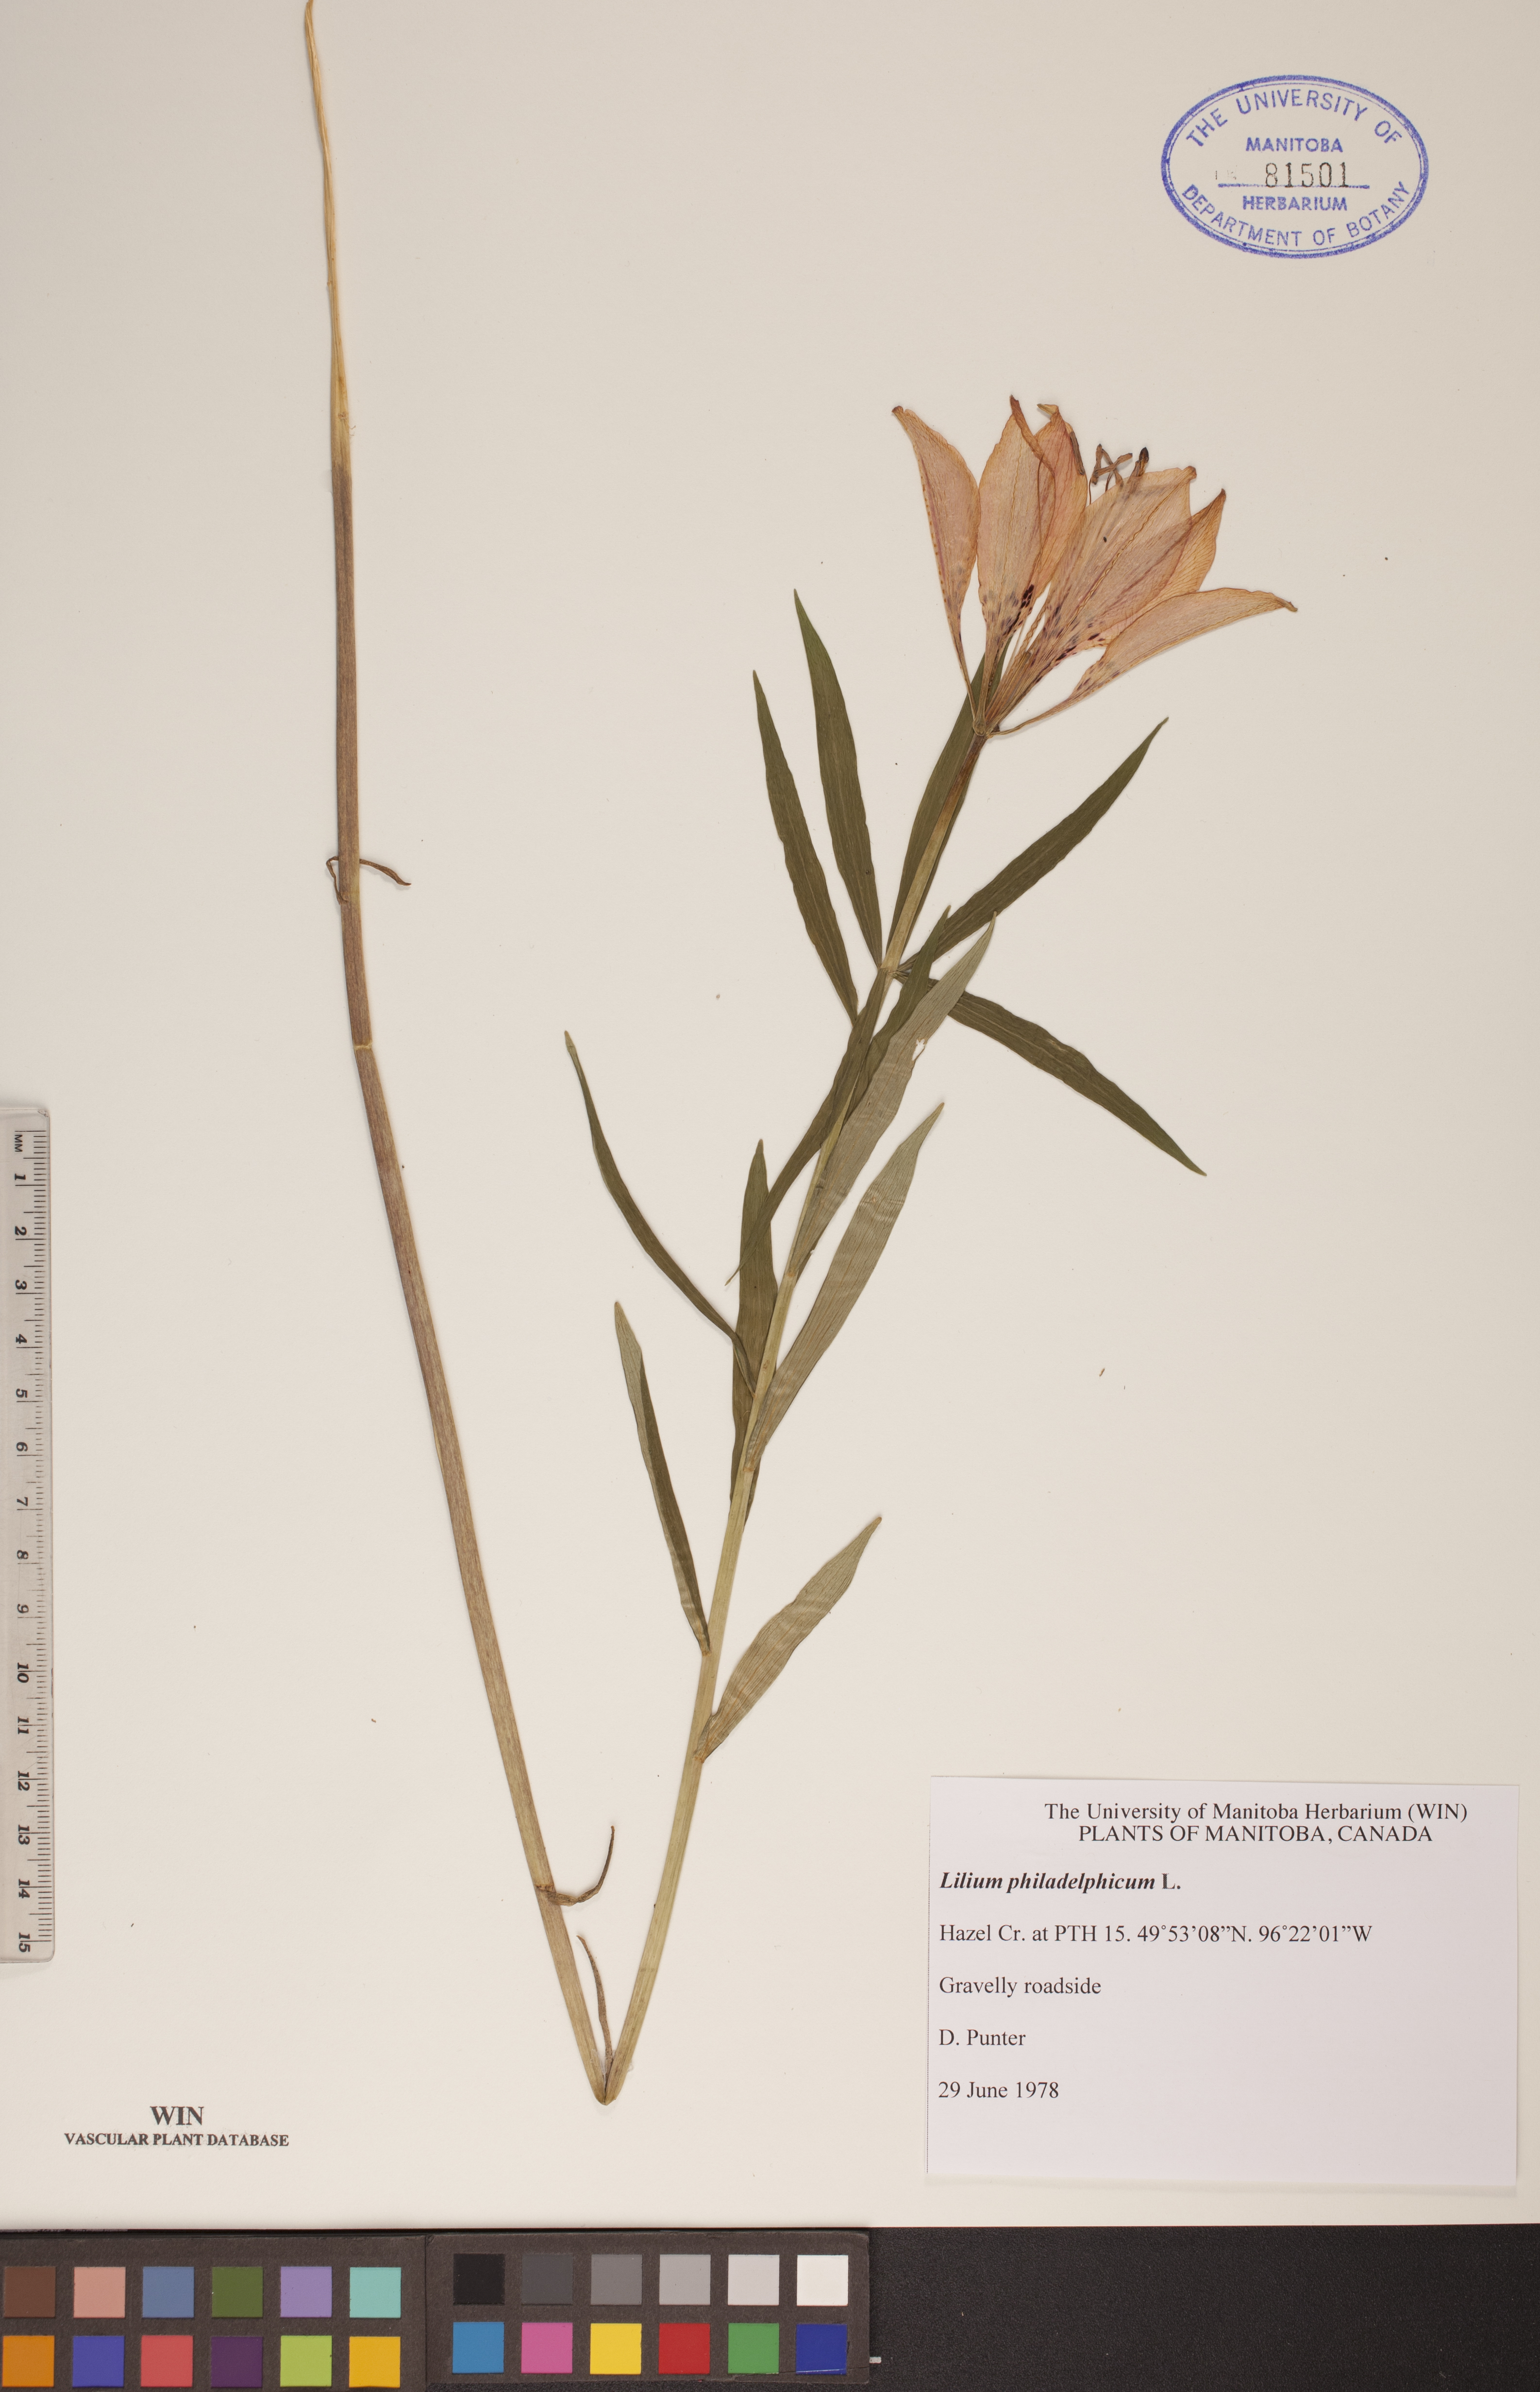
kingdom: Plantae
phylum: Tracheophyta
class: Liliopsida
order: Liliales
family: Liliaceae
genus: Lilium
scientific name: Lilium philadelphicum
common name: Red lily
